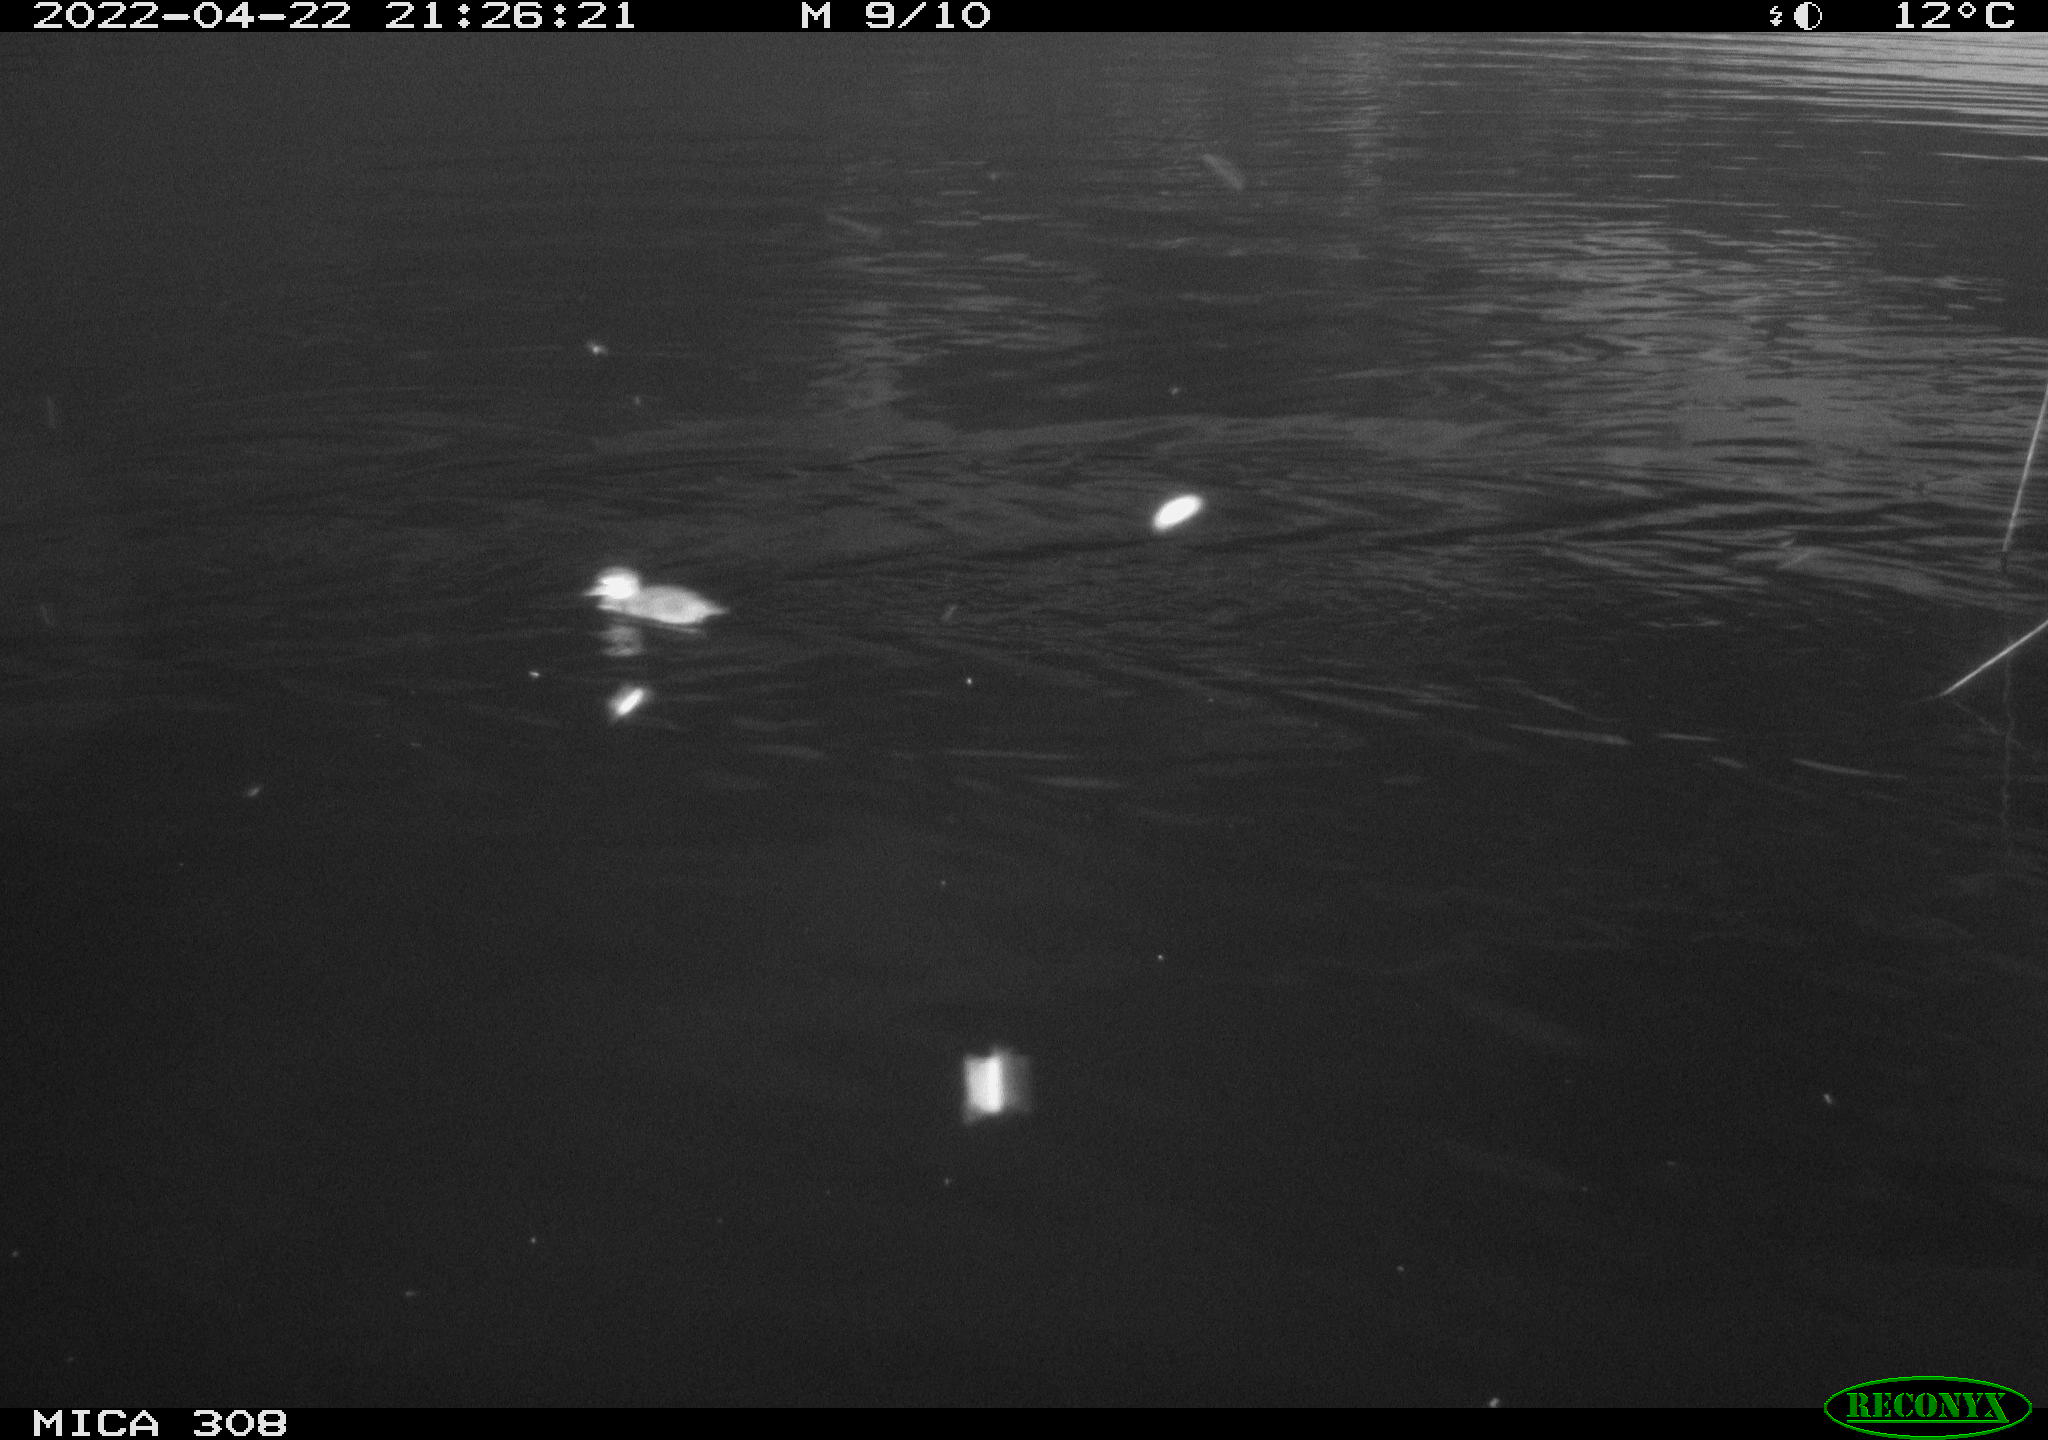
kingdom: Animalia
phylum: Chordata
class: Aves
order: Anseriformes
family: Anatidae
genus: Mareca
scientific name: Mareca strepera
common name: Gadwall
